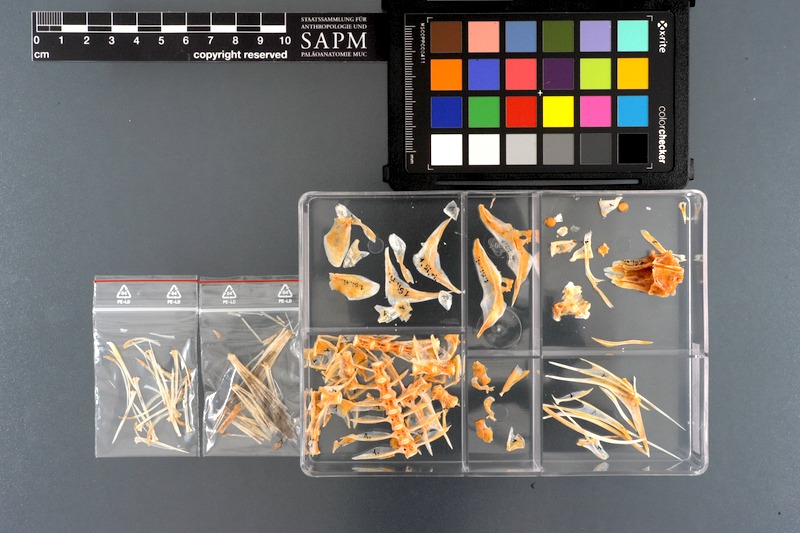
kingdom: Animalia
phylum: Chordata
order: Perciformes
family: Siganidae
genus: Siganus
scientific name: Siganus rivulatus
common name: Marbled spinefoot
